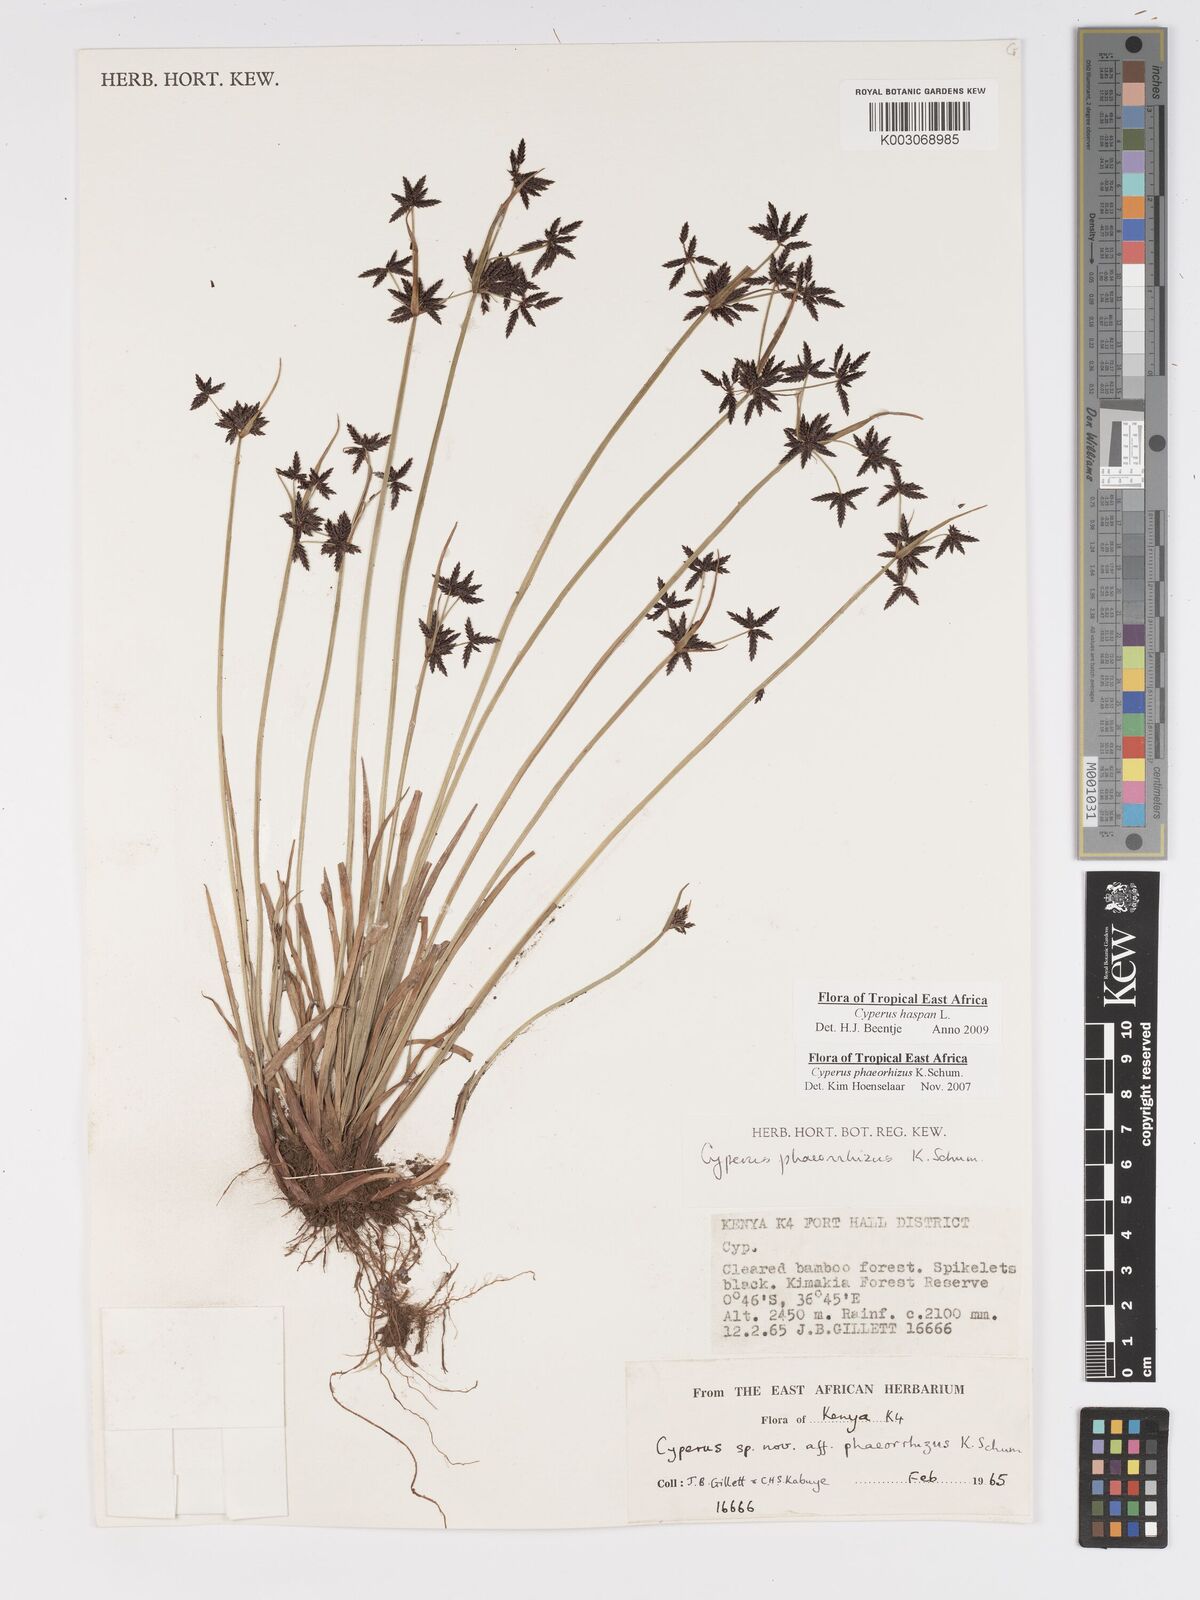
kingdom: Plantae
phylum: Tracheophyta
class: Liliopsida
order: Poales
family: Cyperaceae
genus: Cyperus
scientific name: Cyperus haspan
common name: Haspan flatsedge
